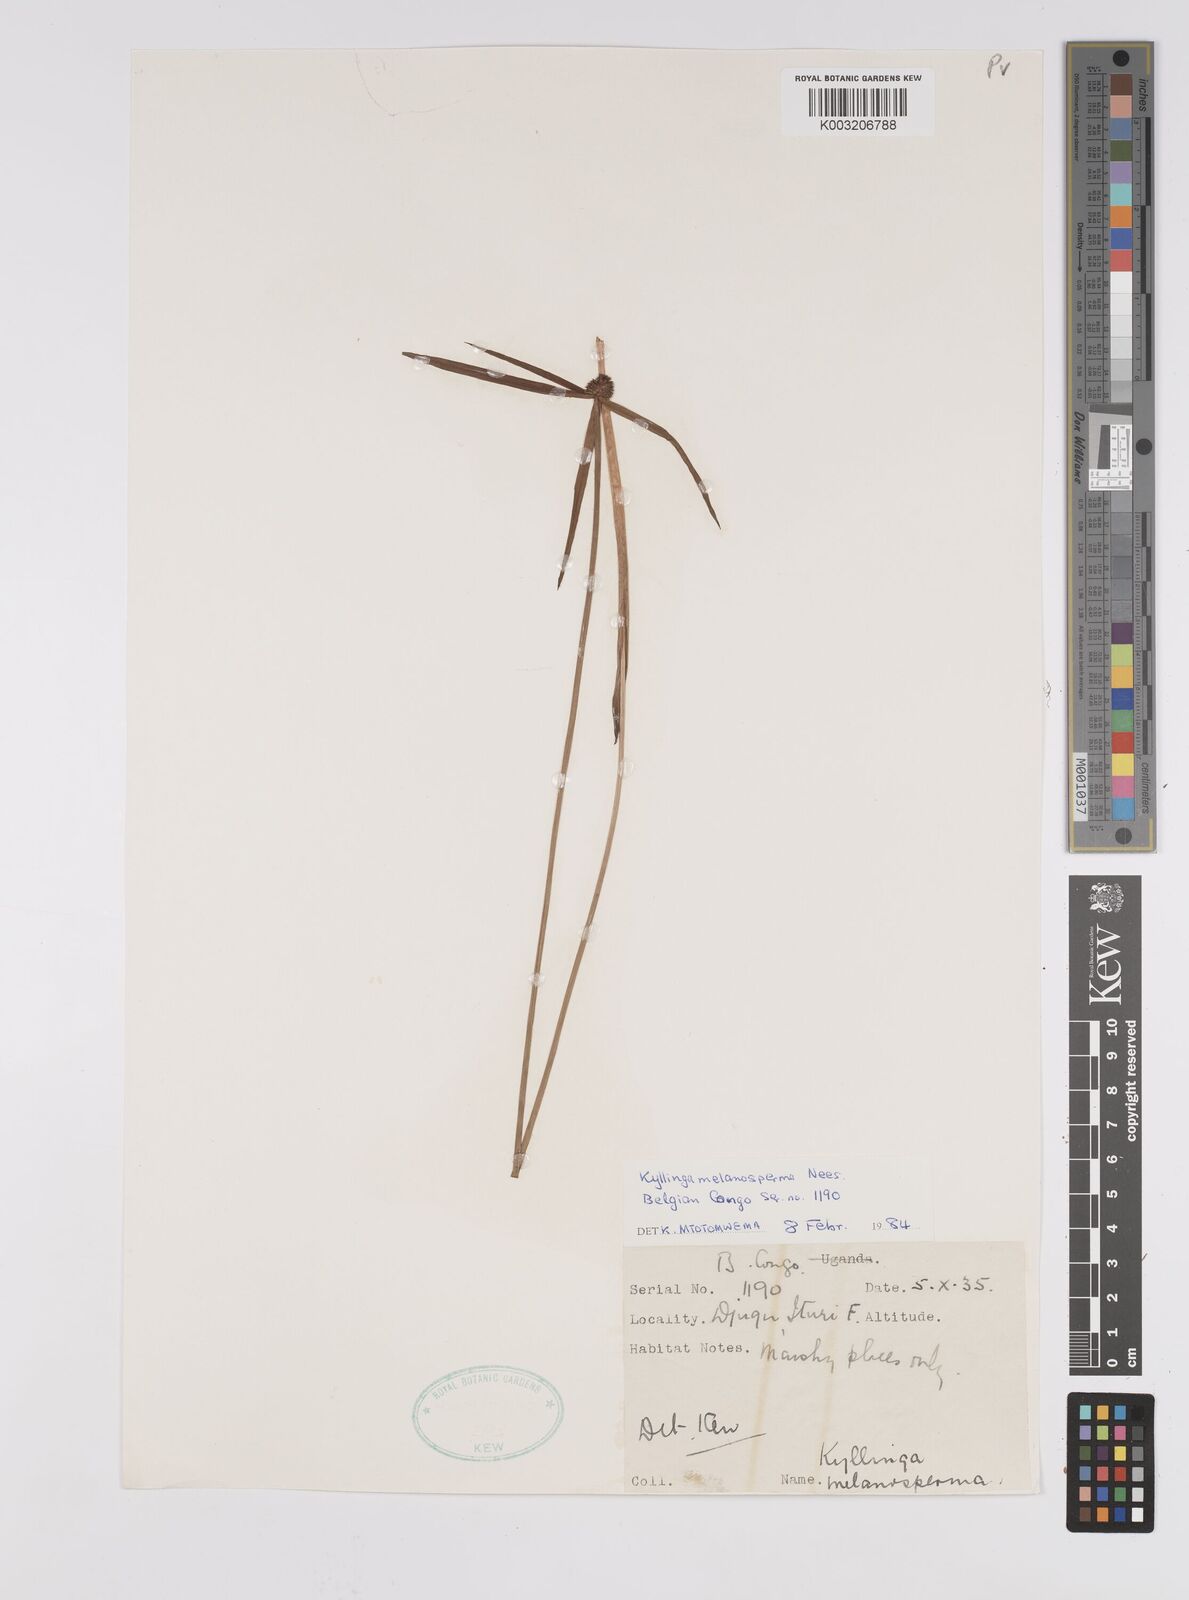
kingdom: Plantae
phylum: Tracheophyta
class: Liliopsida
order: Poales
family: Cyperaceae
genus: Cyperus
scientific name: Cyperus melanospermus
